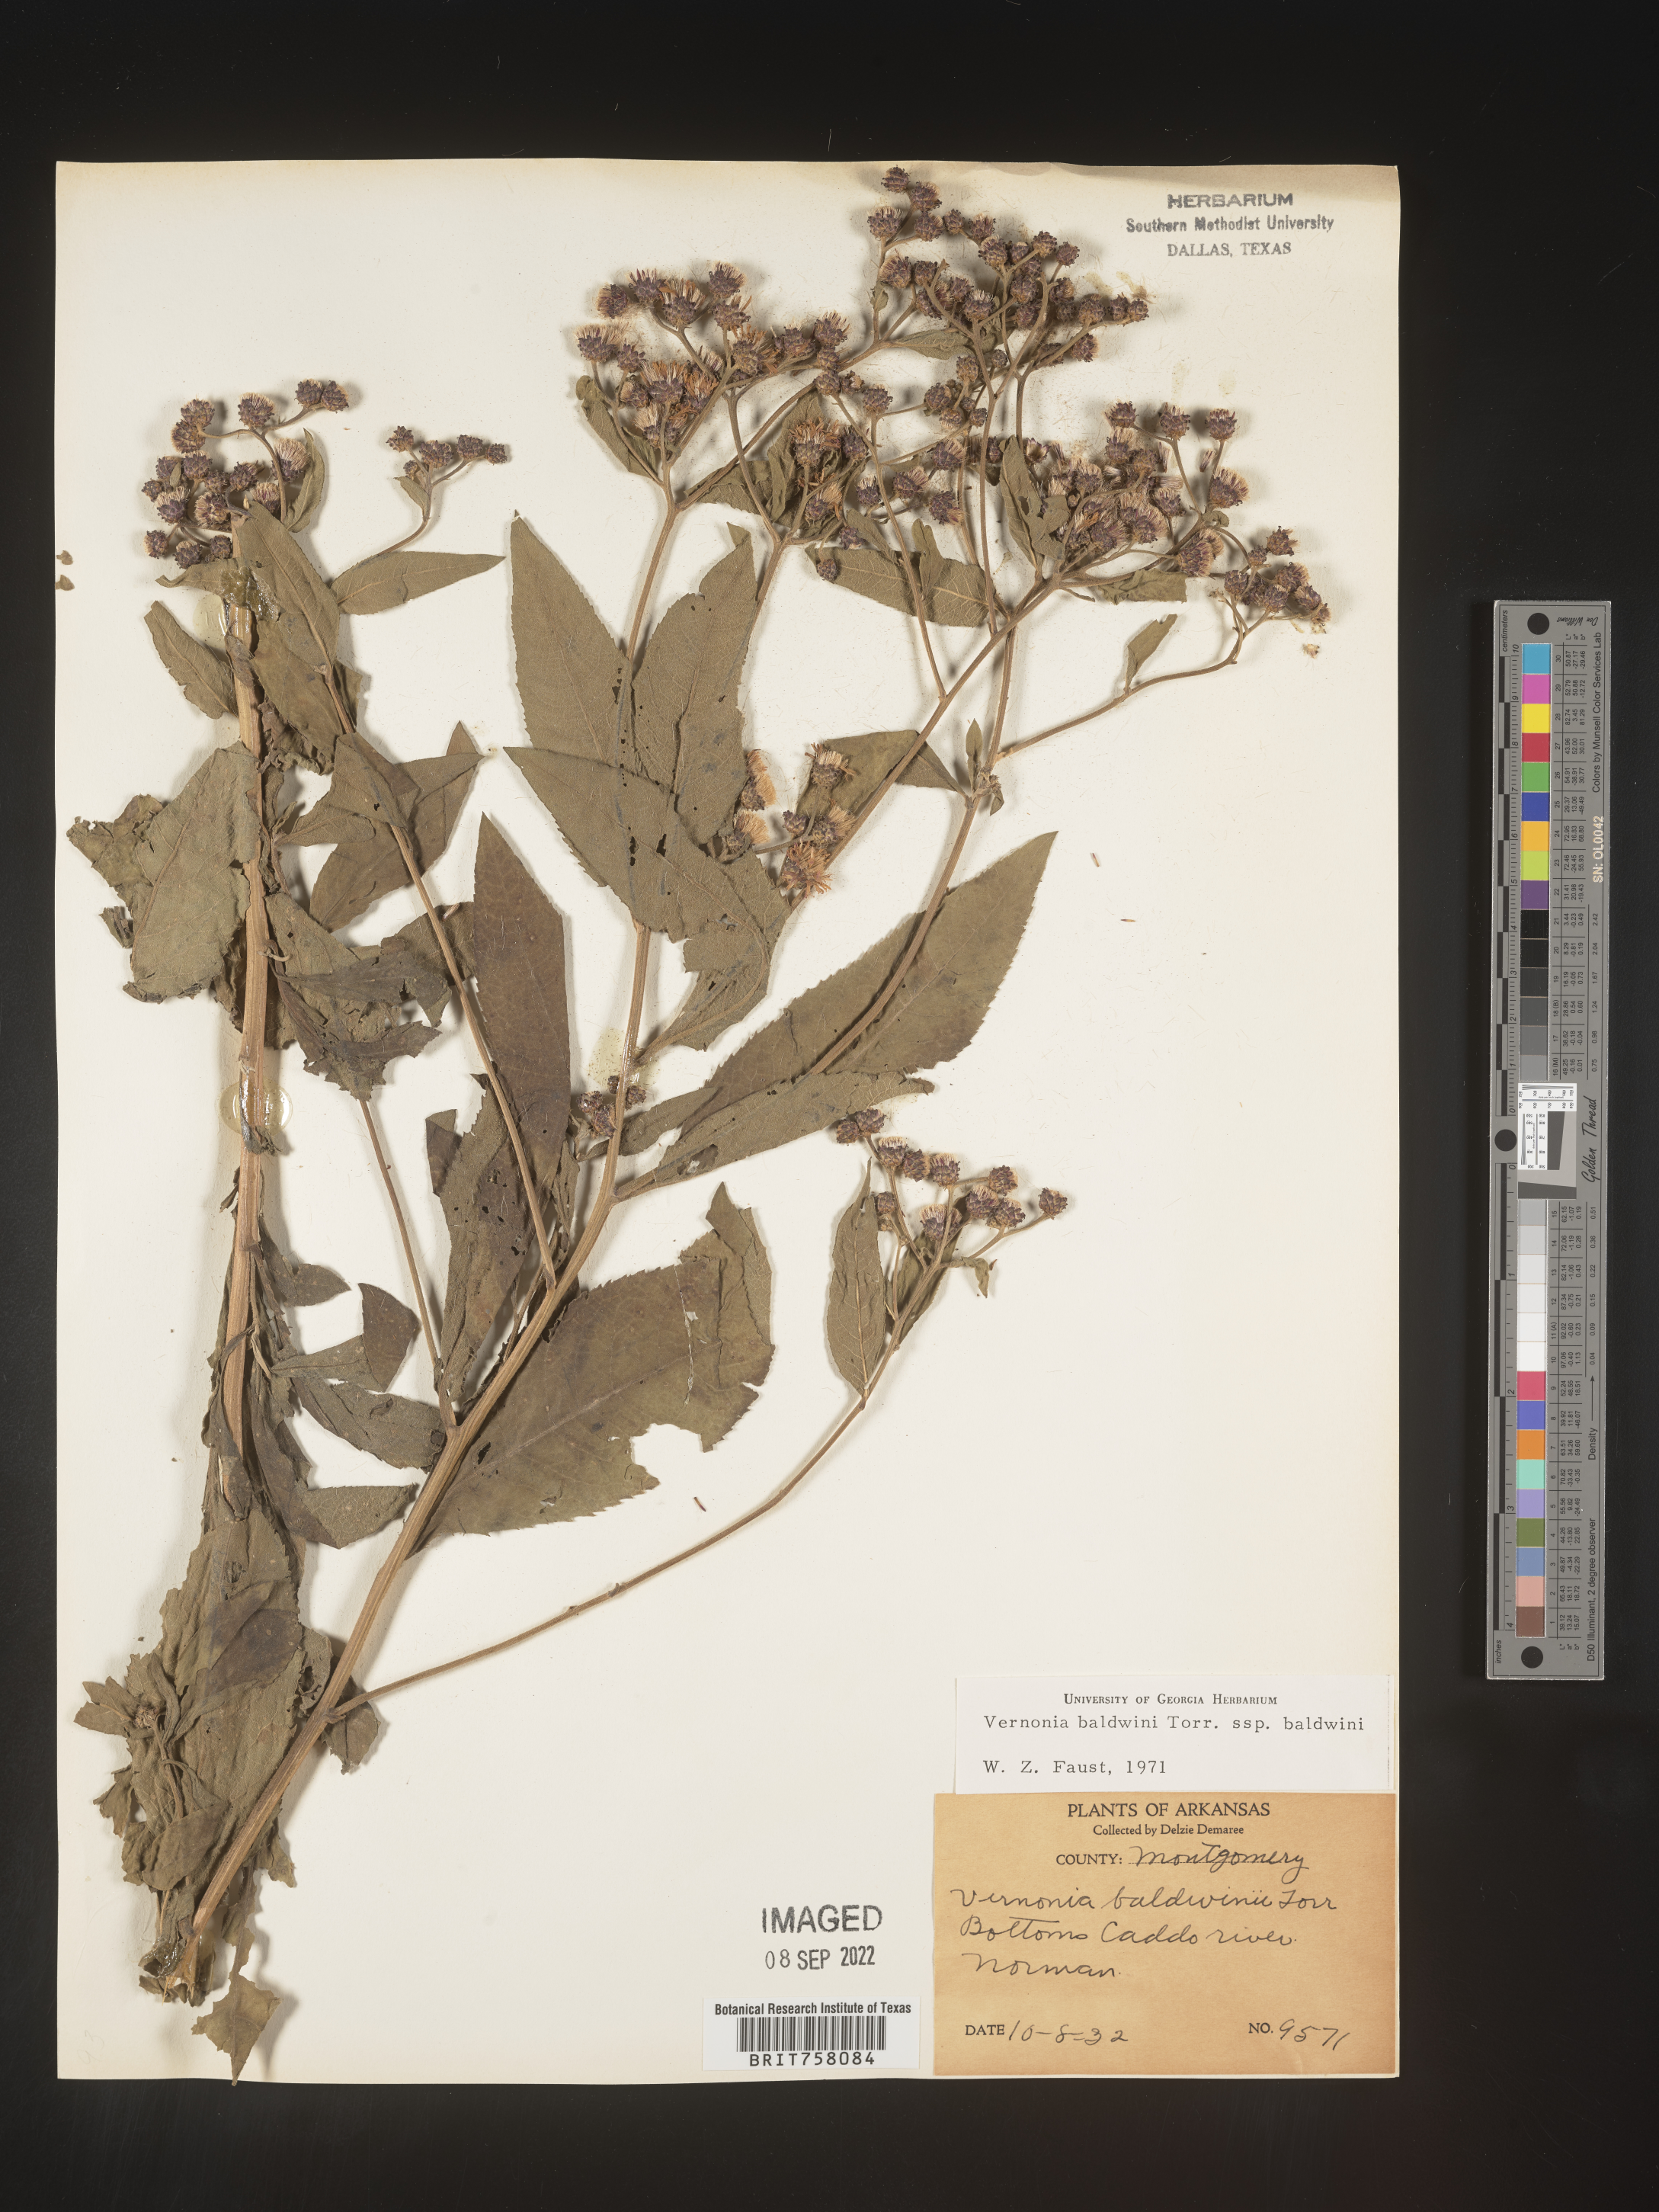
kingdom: Plantae
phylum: Tracheophyta
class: Magnoliopsida
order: Asterales
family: Asteraceae
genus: Vernonia
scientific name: Vernonia baldwinii
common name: Western ironweed
